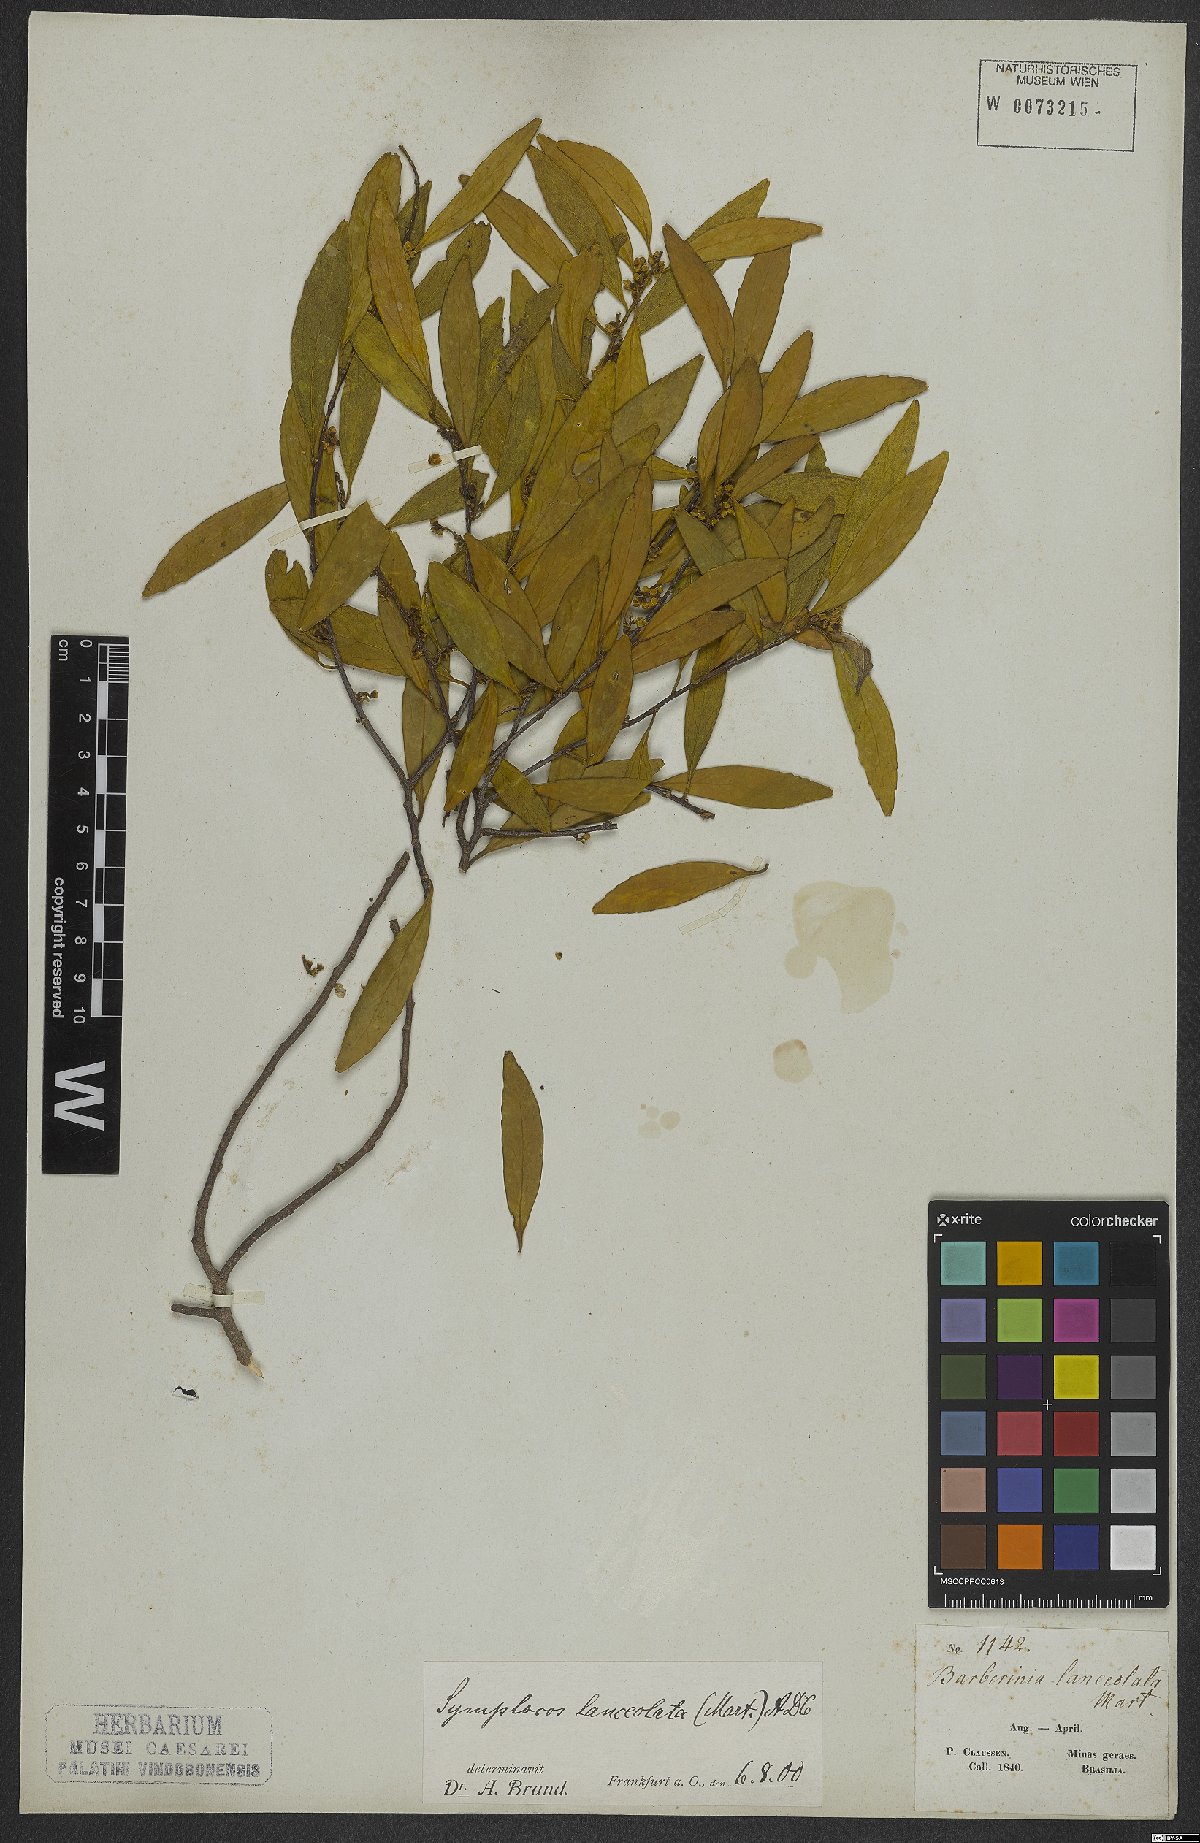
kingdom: Plantae
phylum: Tracheophyta
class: Magnoliopsida
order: Ericales
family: Symplocaceae
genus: Symplocos
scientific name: Symplocos oblongifolia
